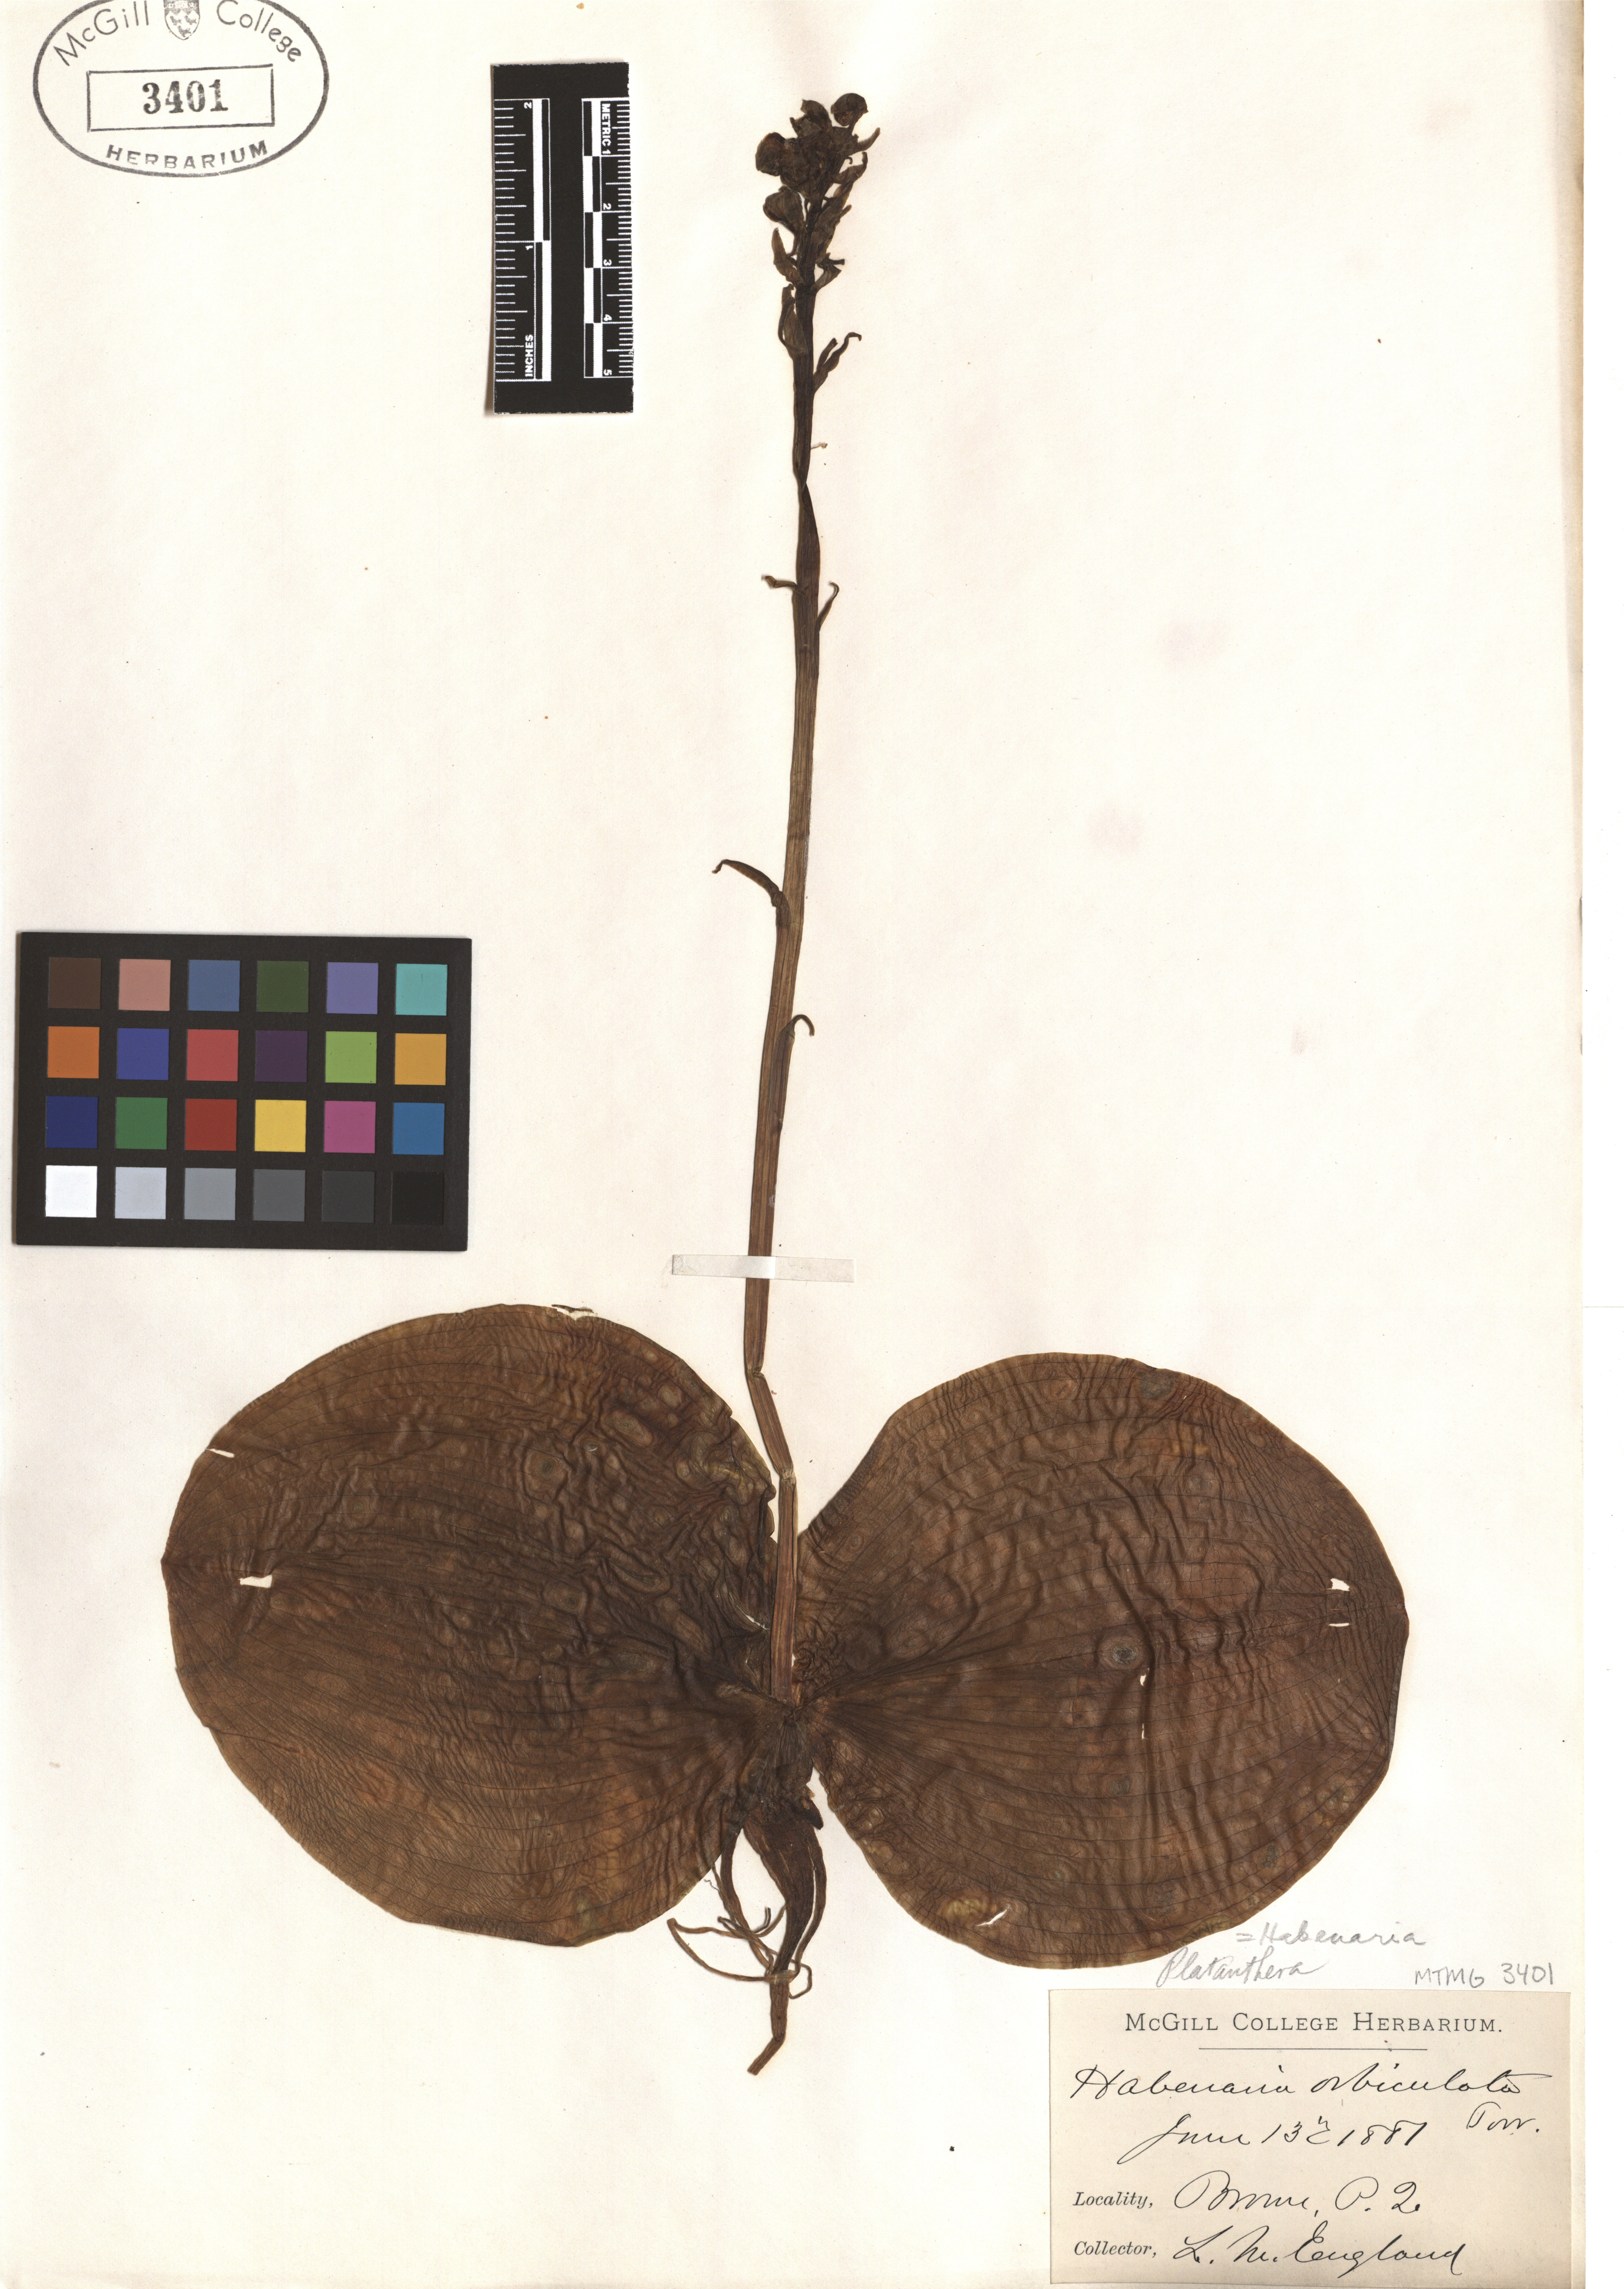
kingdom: Plantae
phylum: Tracheophyta
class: Liliopsida
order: Asparagales
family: Orchidaceae
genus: Platanthera
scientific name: Platanthera orbiculata
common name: Large round-leaved orchid
